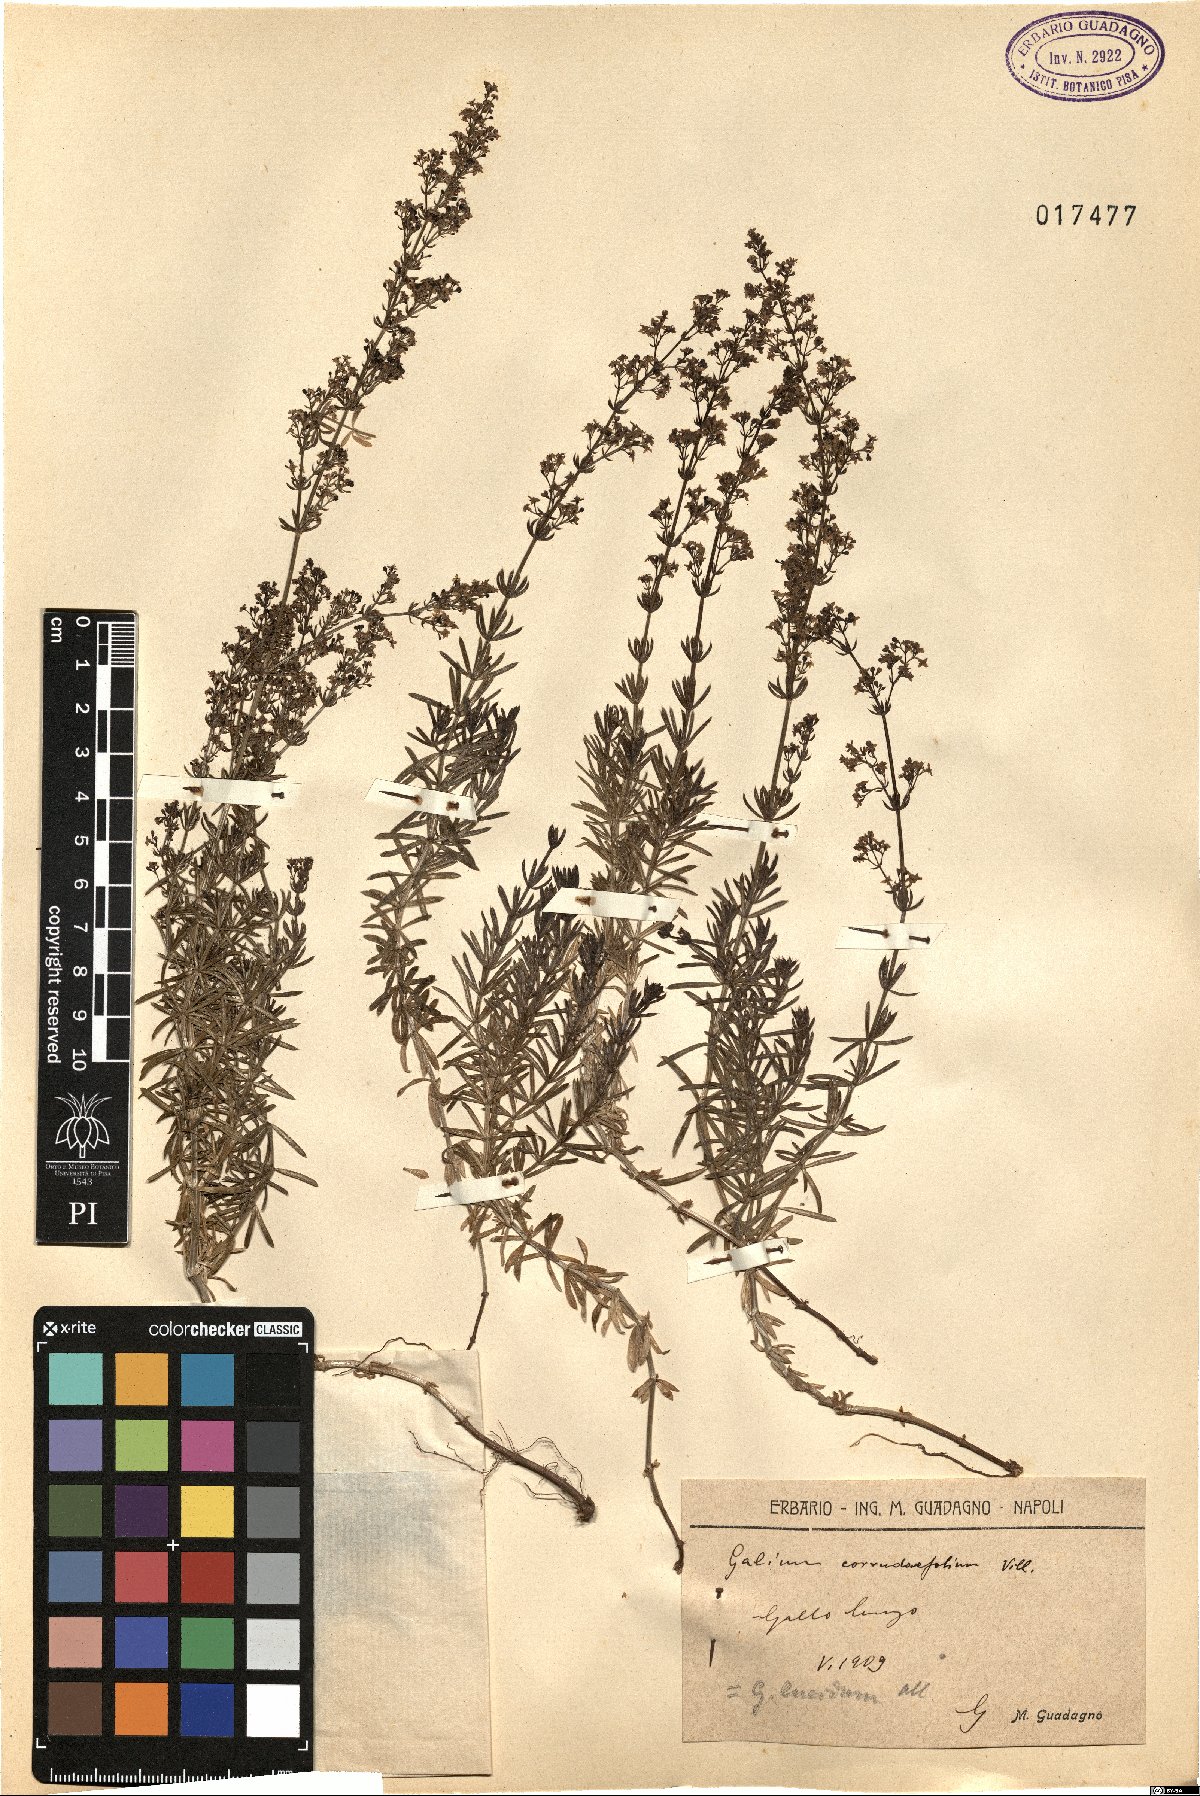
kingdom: Plantae
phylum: Tracheophyta
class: Magnoliopsida
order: Gentianales
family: Rubiaceae
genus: Galium
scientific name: Galium lucidum
